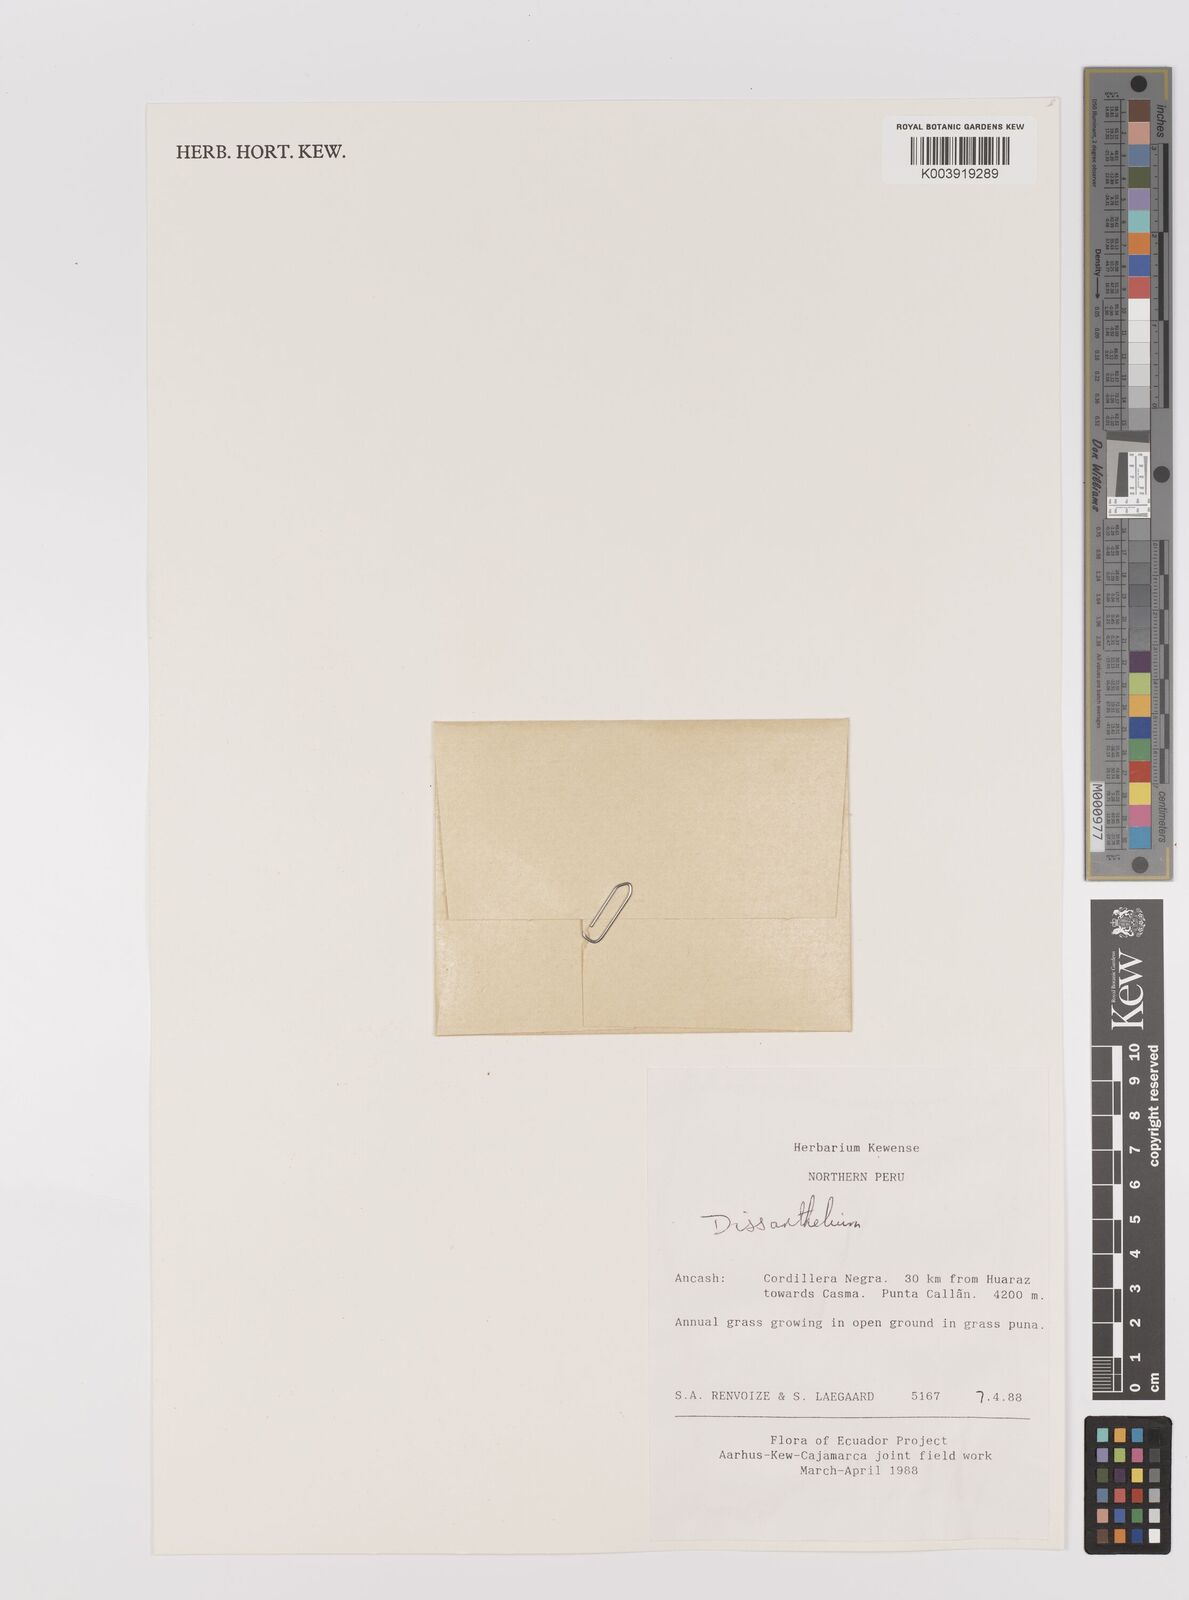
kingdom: Plantae
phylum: Tracheophyta
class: Liliopsida
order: Poales
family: Poaceae
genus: Poa
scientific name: Poa macusaniensis
